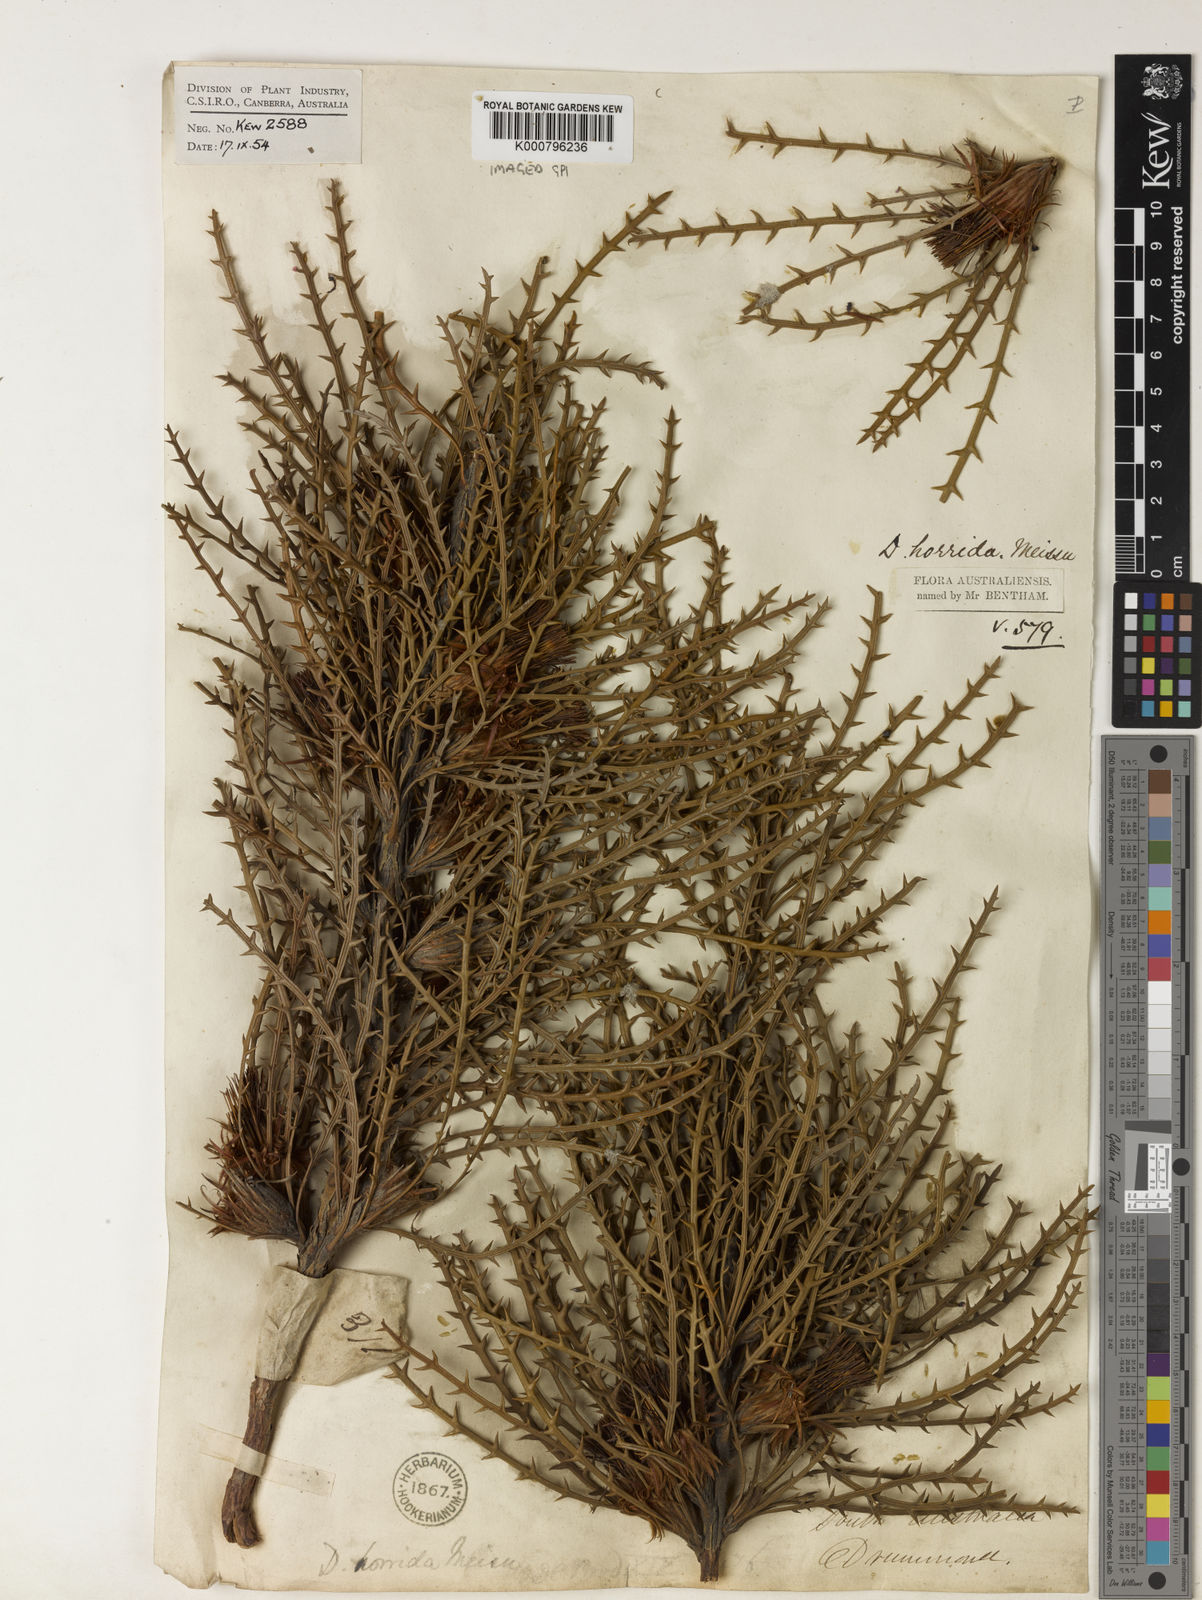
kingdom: Plantae
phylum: Tracheophyta
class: Magnoliopsida
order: Proteales
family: Proteaceae
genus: Banksia
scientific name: Banksia horrida
